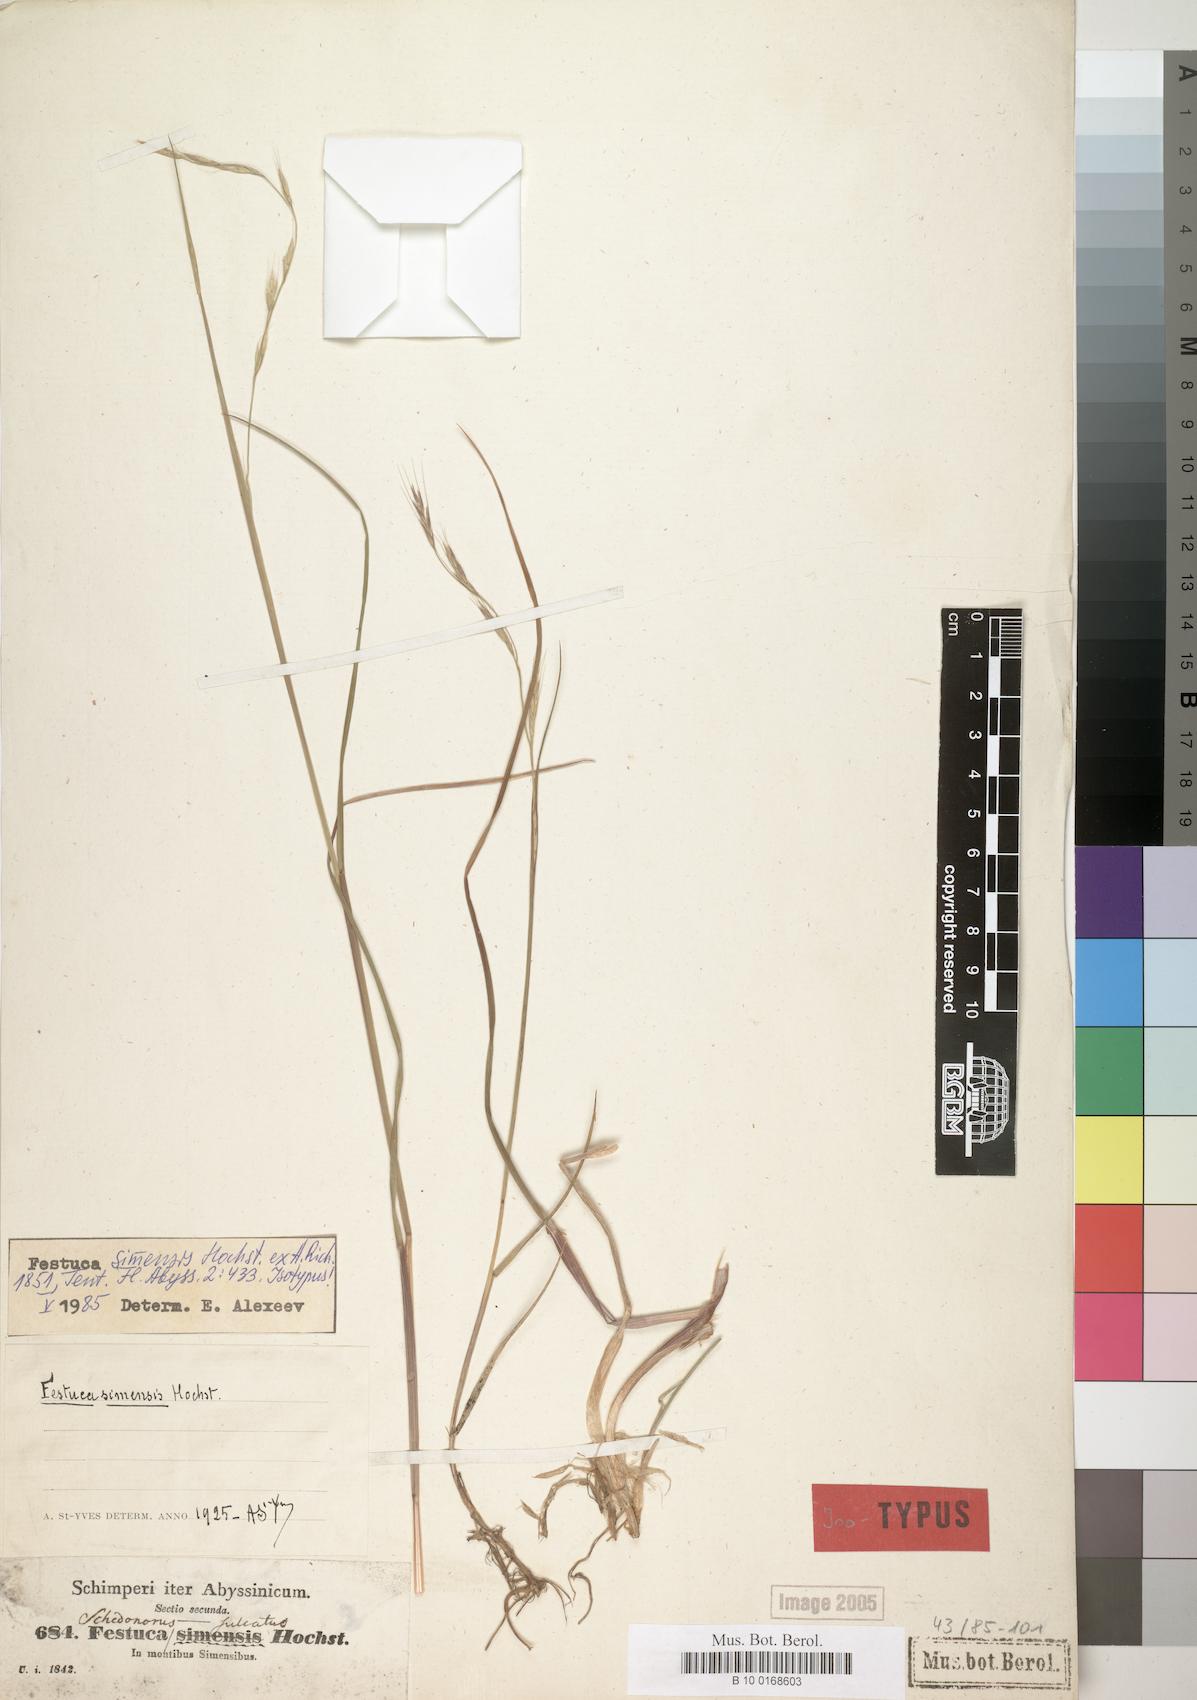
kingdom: Plantae
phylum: Tracheophyta
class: Liliopsida
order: Poales
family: Poaceae
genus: Festuca
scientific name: Festuca simensis
